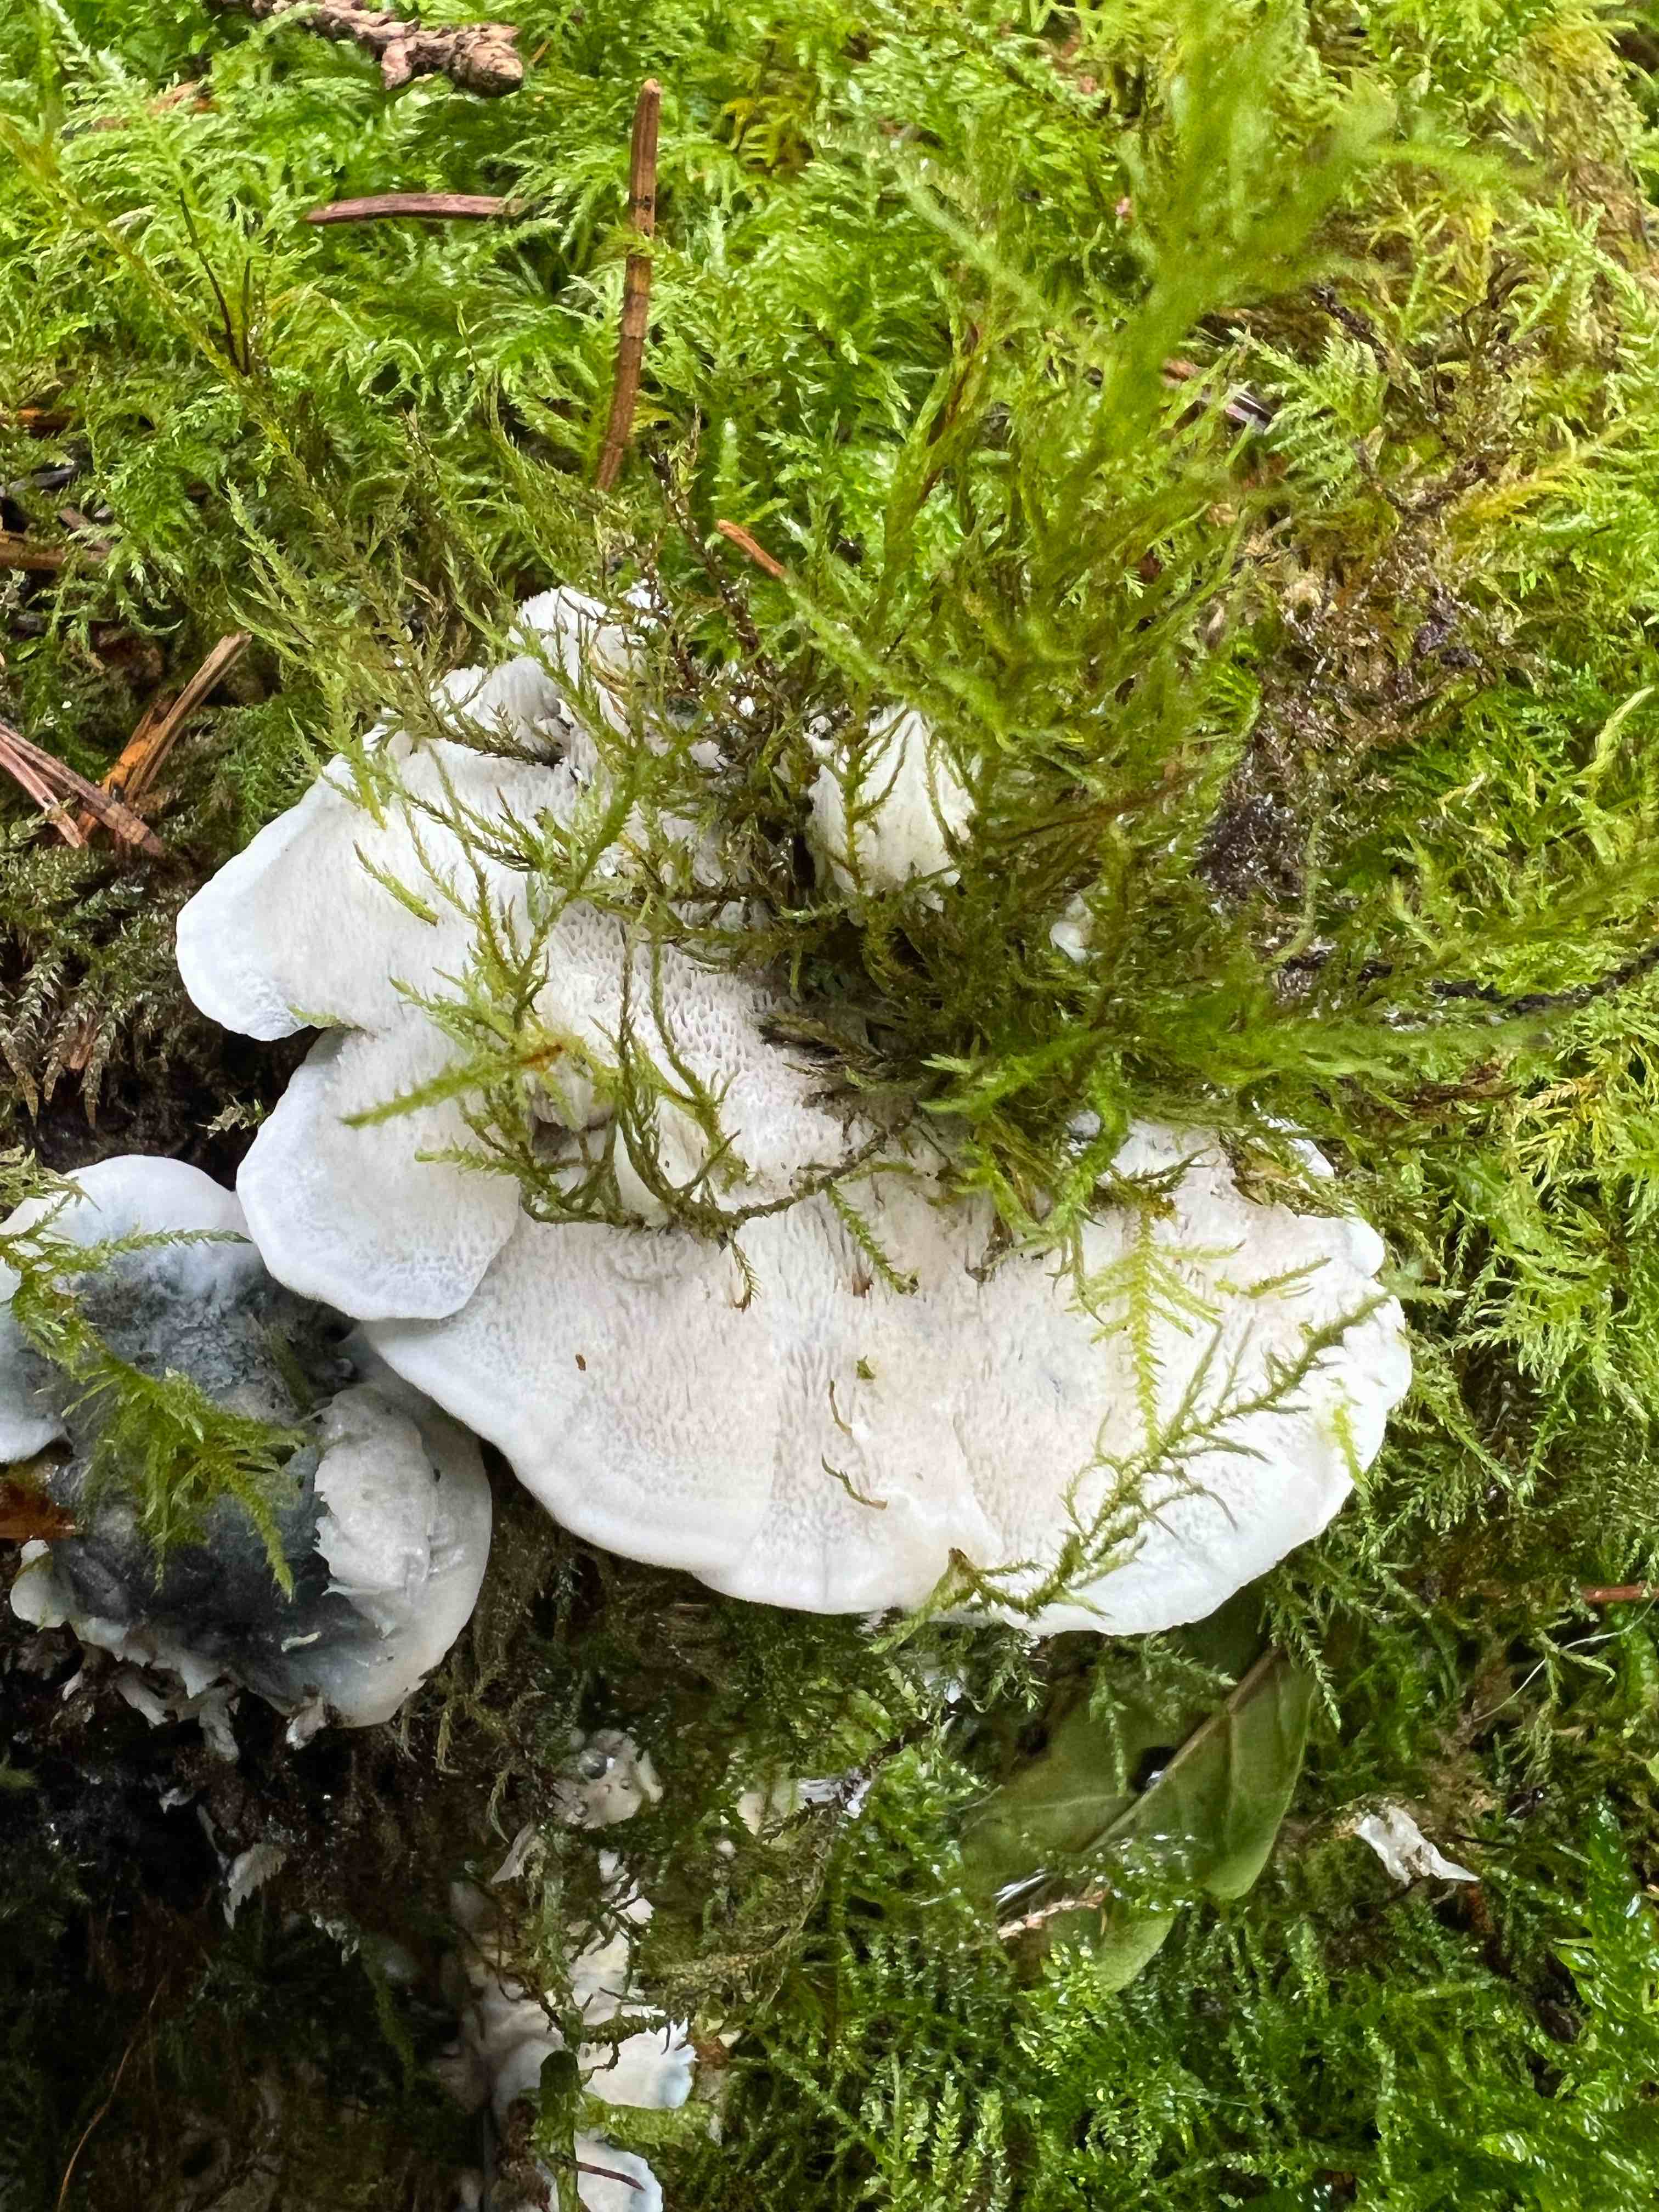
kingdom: Fungi
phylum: Basidiomycota
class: Agaricomycetes
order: Polyporales
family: Polyporaceae
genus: Cyanosporus
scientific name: Cyanosporus caesius
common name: blålig kødporesvamp
